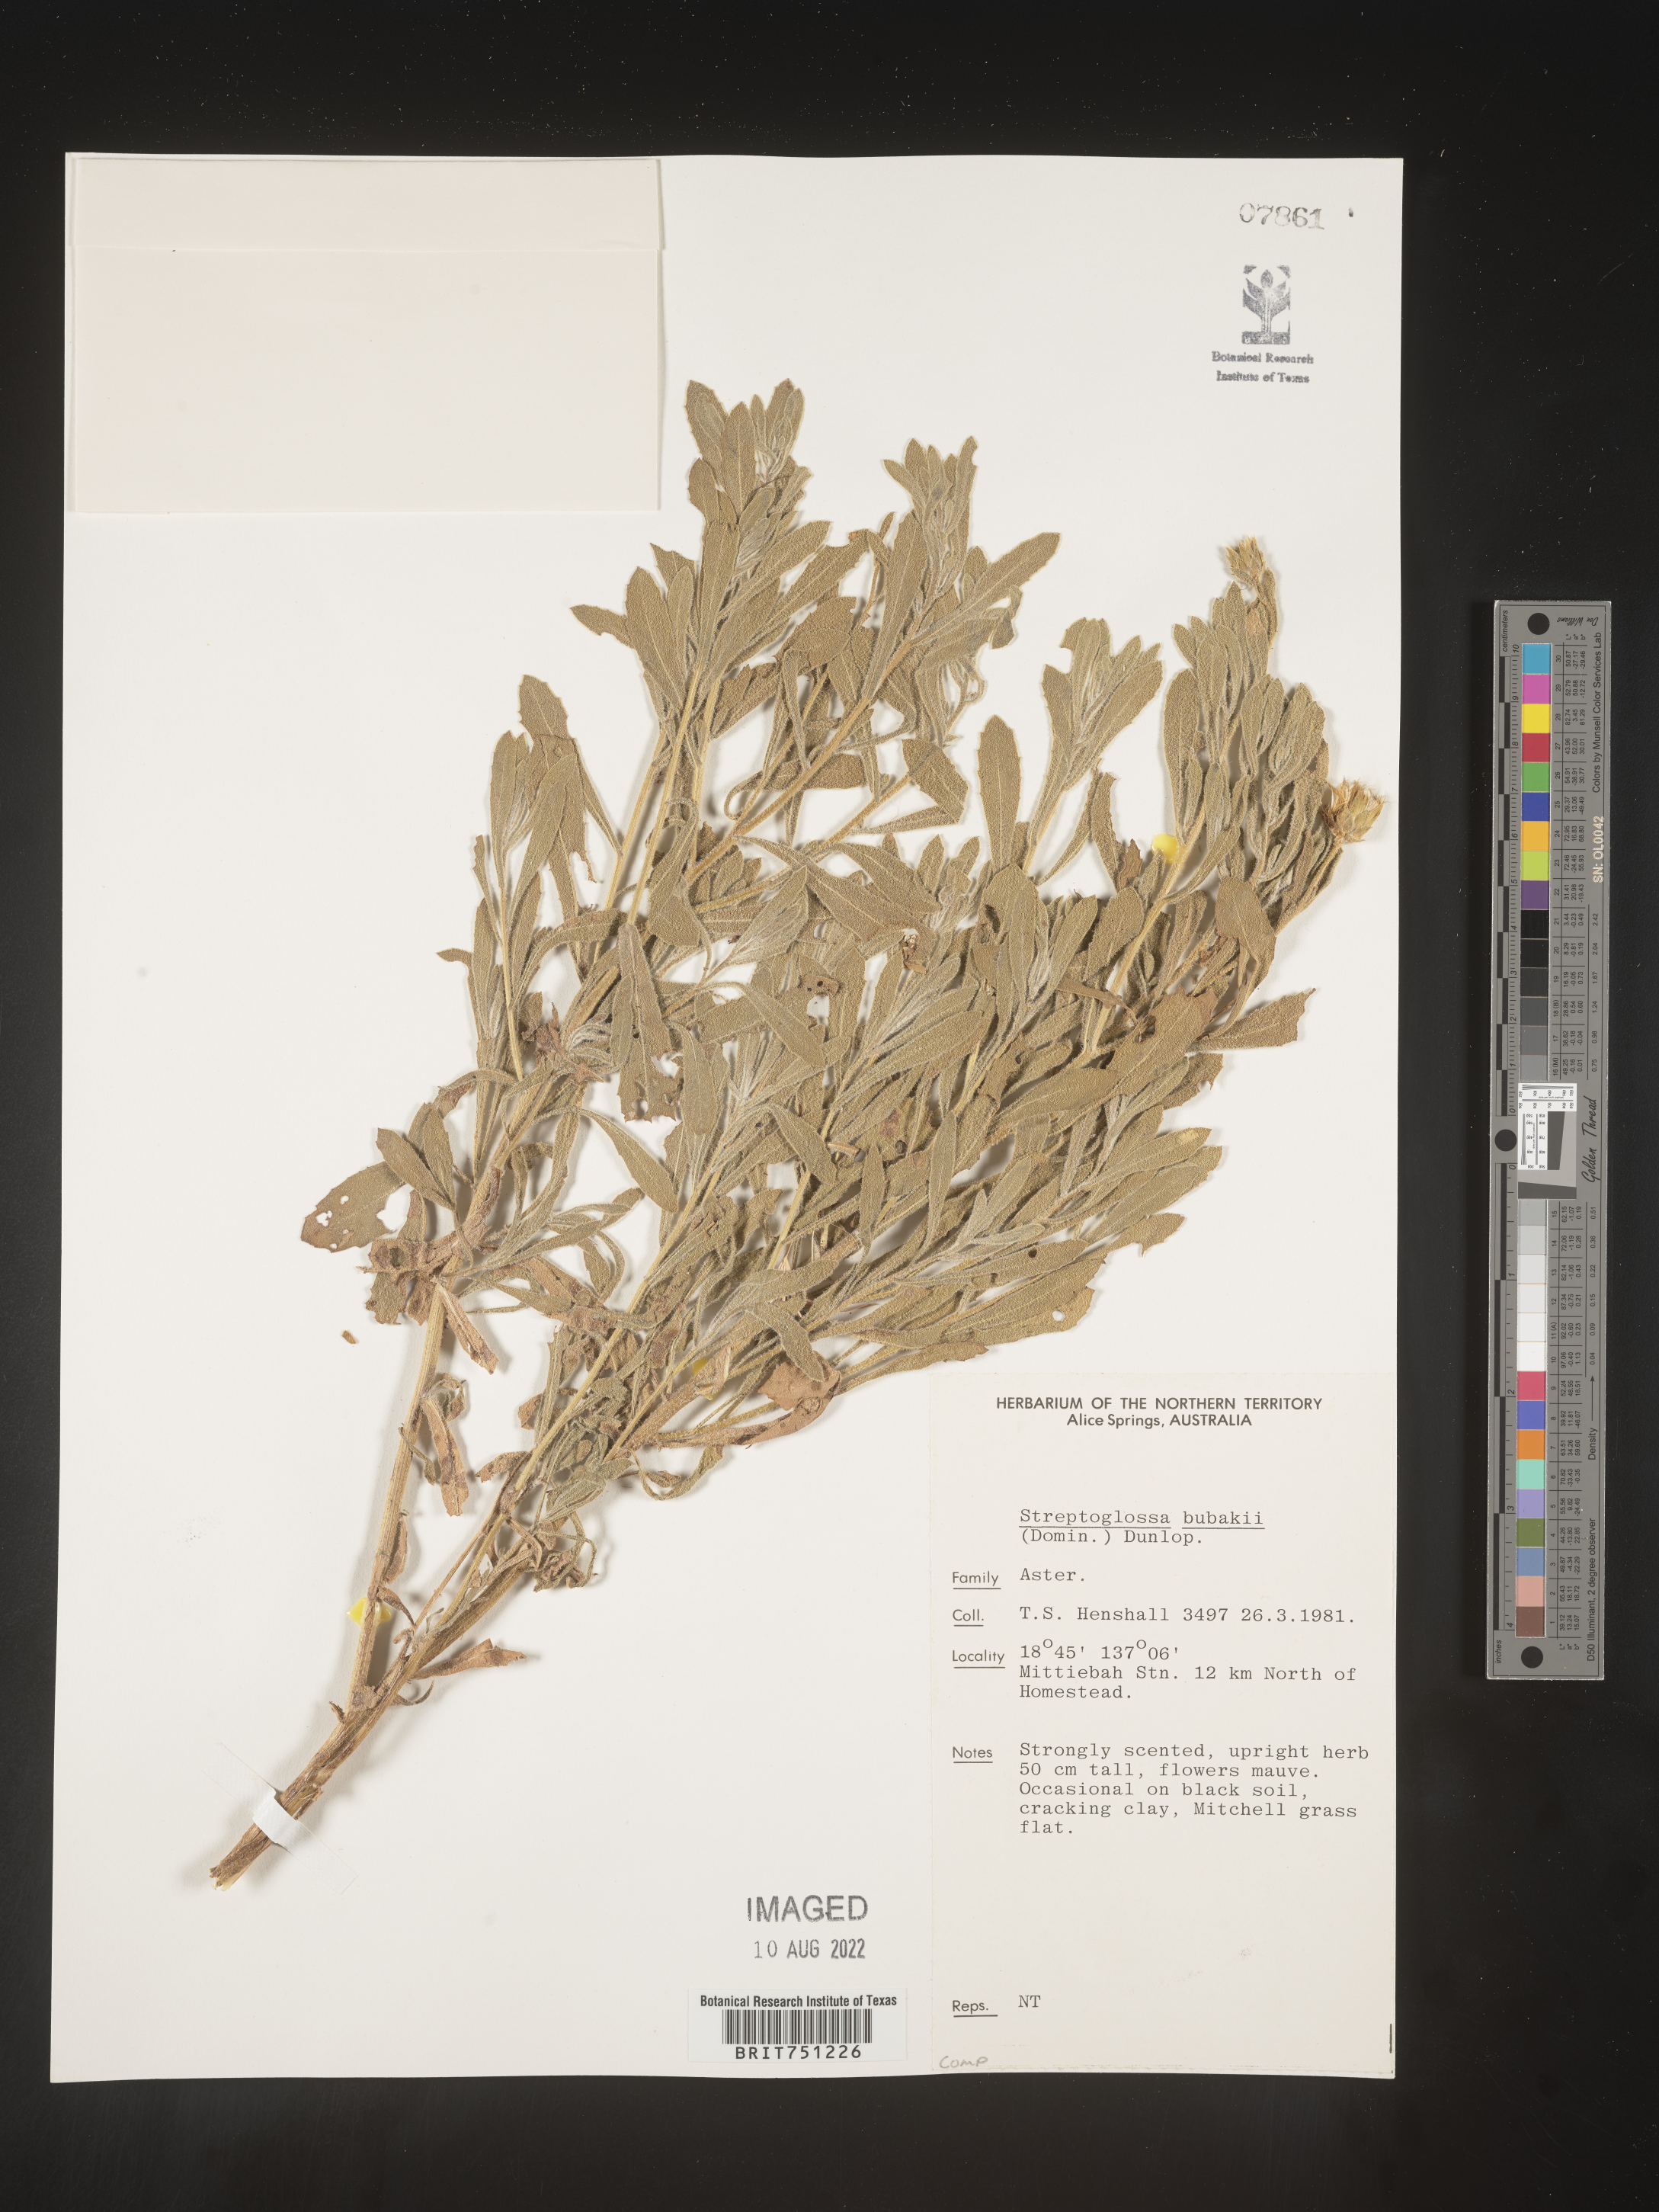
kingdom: Plantae
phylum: Tracheophyta
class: Magnoliopsida
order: Asterales
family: Asteraceae
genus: Streptoglossa
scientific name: Streptoglossa
